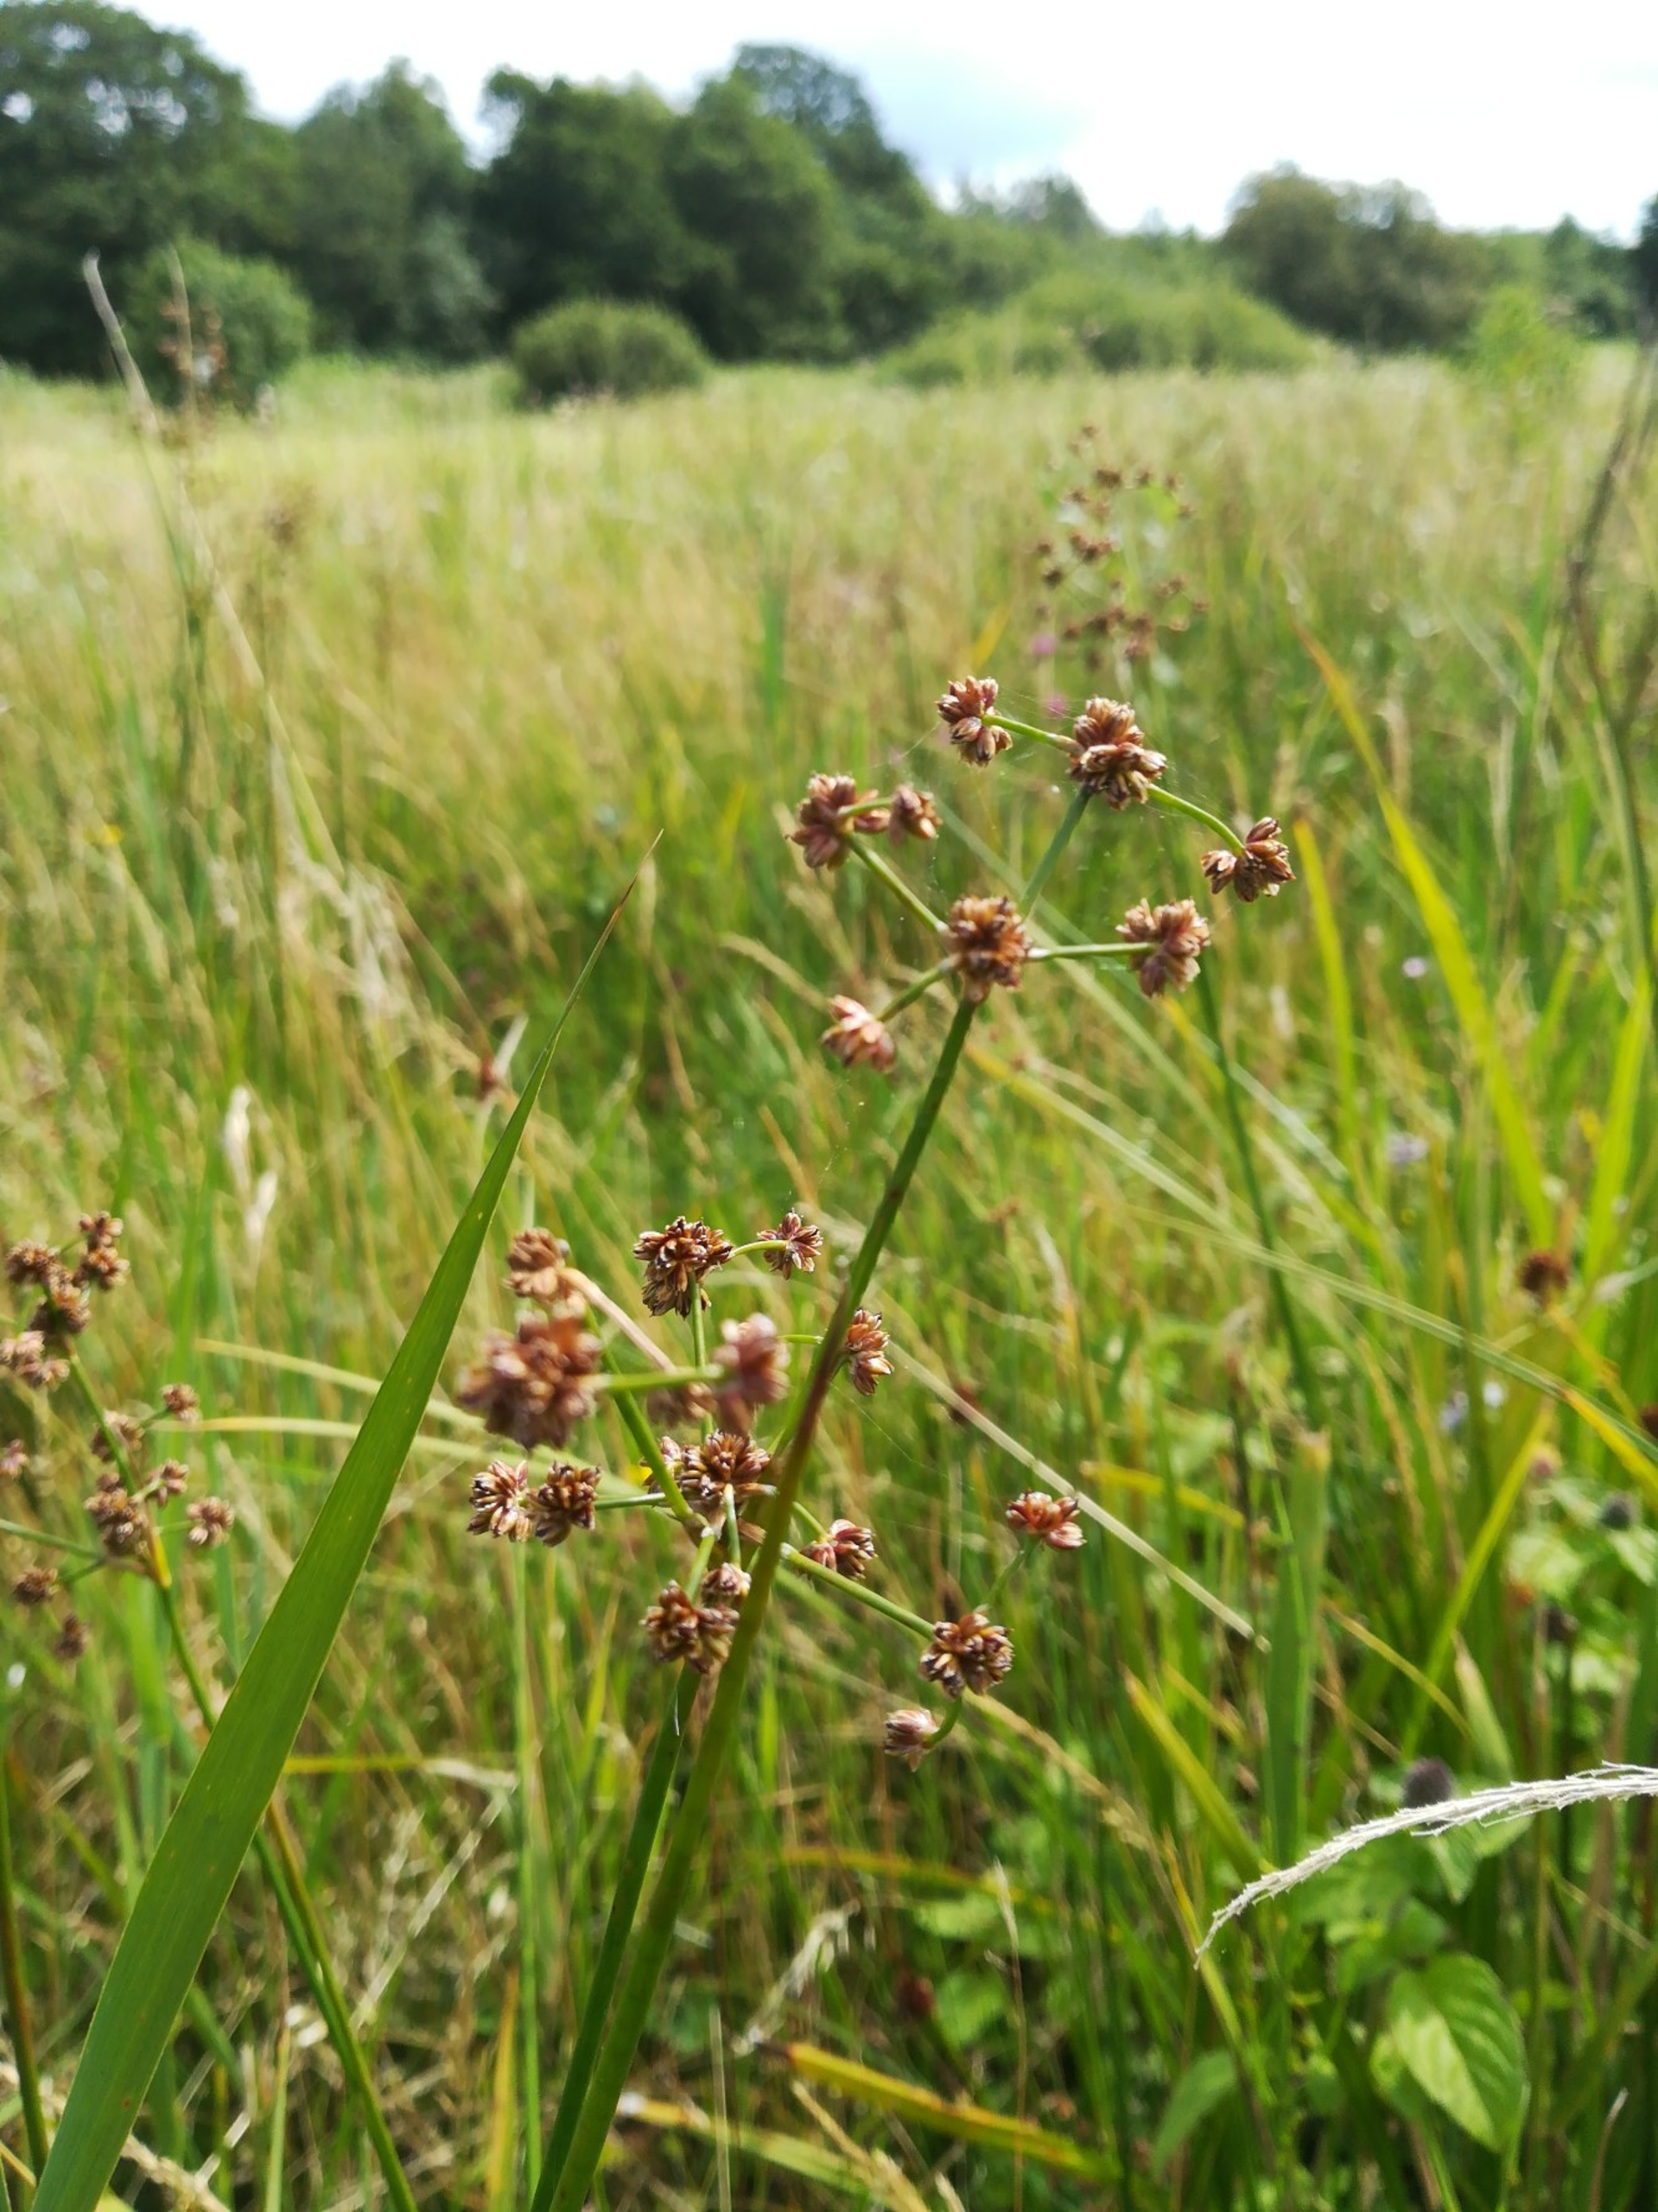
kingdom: Plantae
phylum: Tracheophyta
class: Liliopsida
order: Poales
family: Juncaceae
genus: Juncus
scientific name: Juncus subnodulosus
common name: Butblomstret siv
